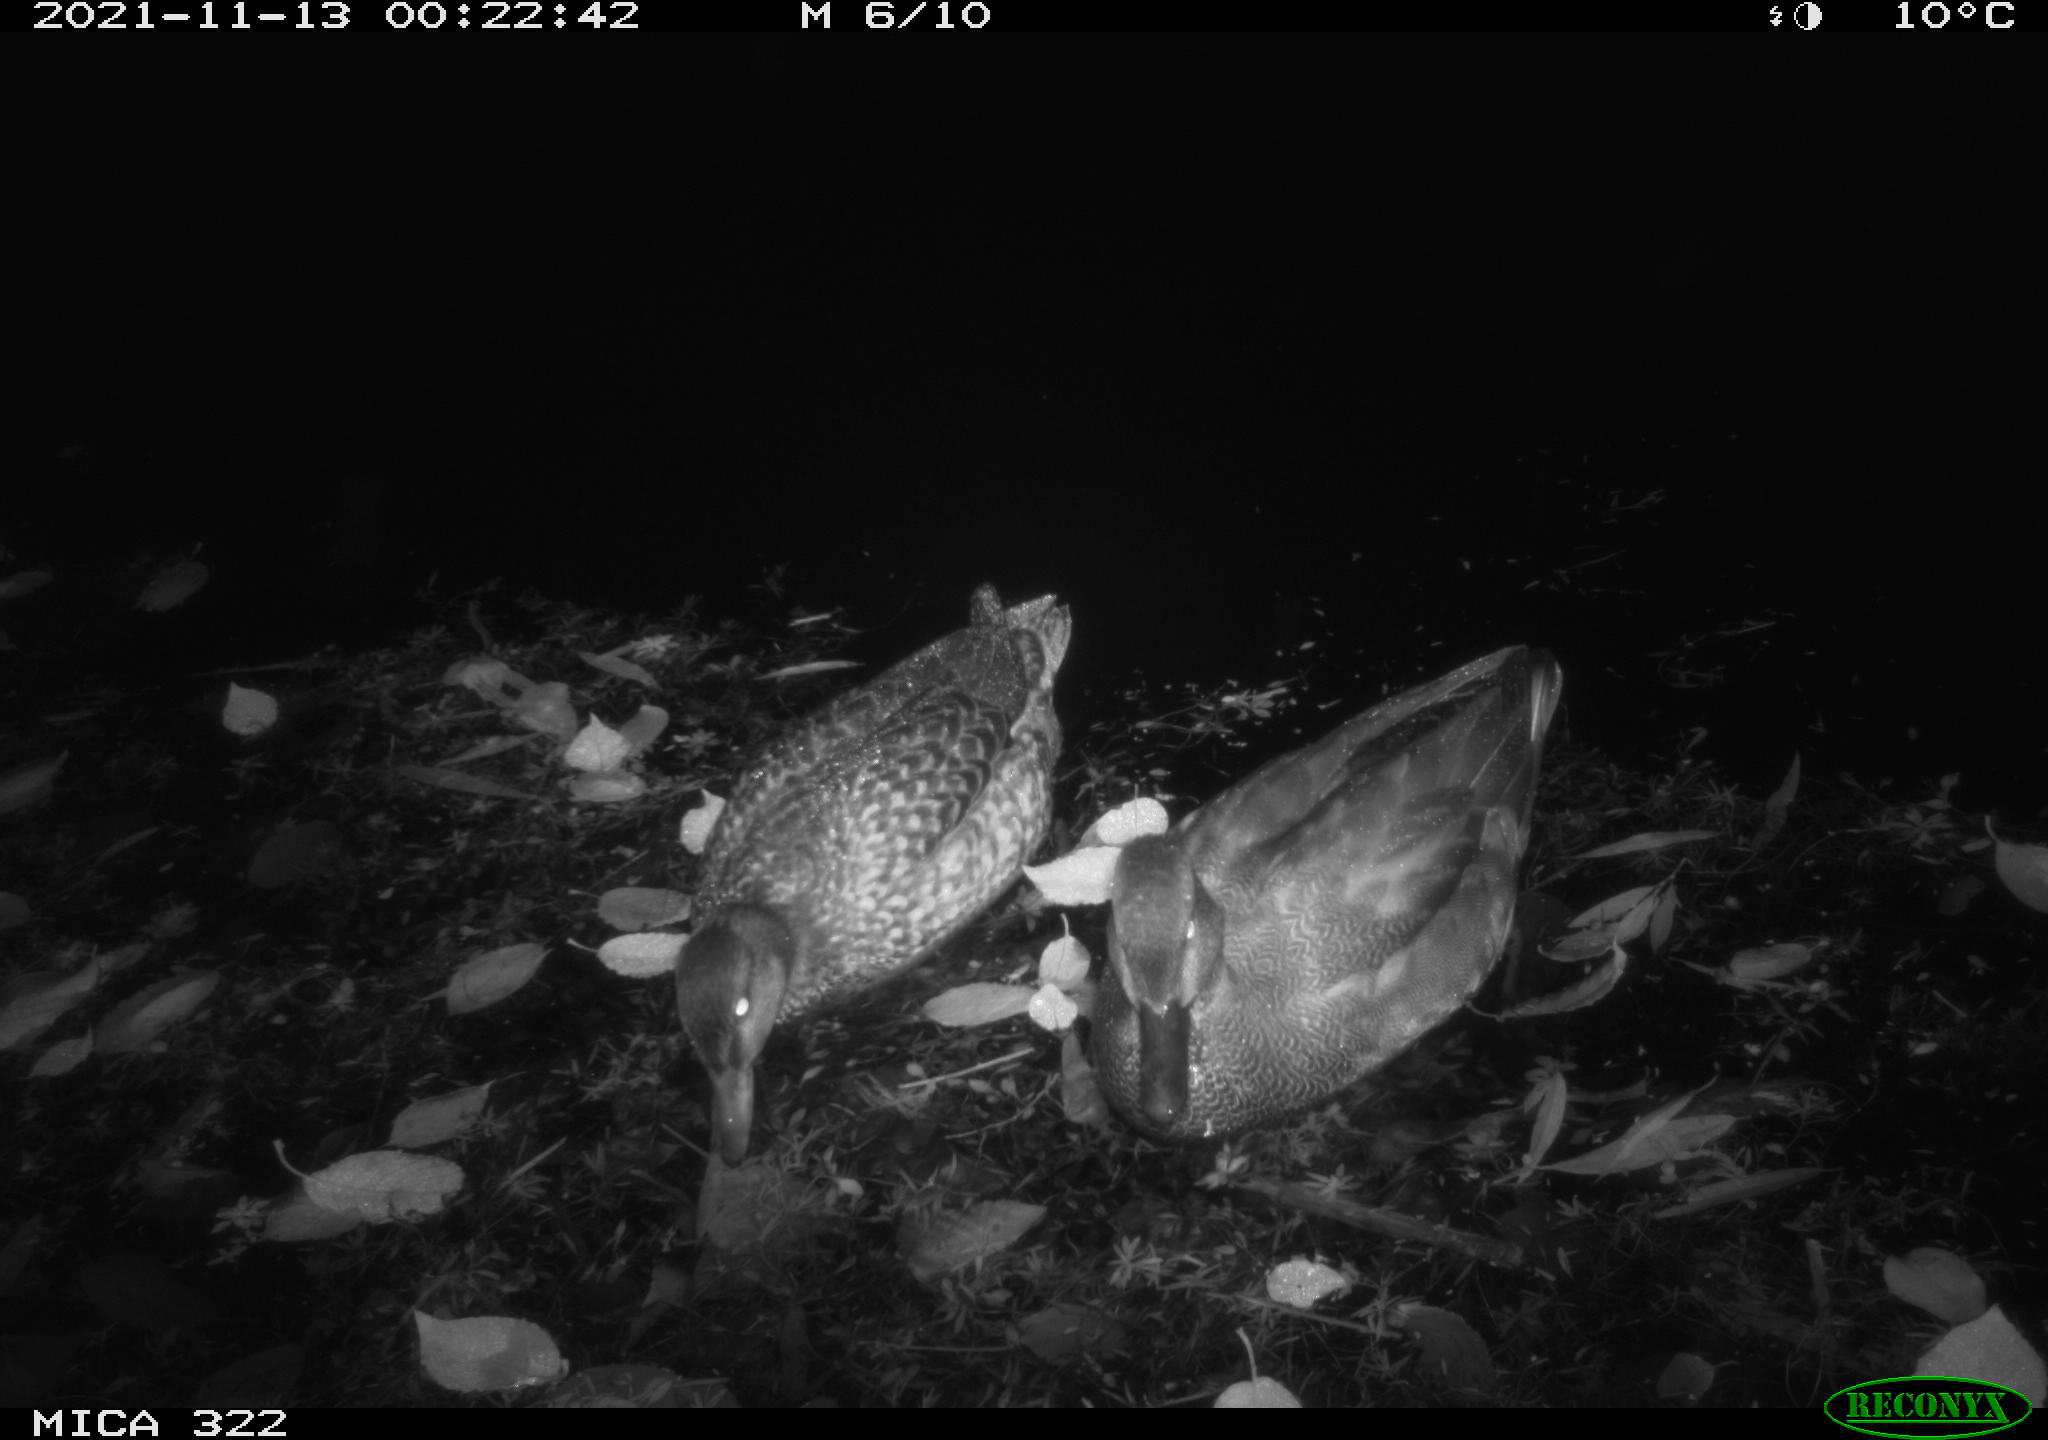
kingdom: Animalia
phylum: Chordata
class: Aves
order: Anseriformes
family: Anatidae
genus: Anas
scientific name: Anas platyrhynchos
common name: Mallard
